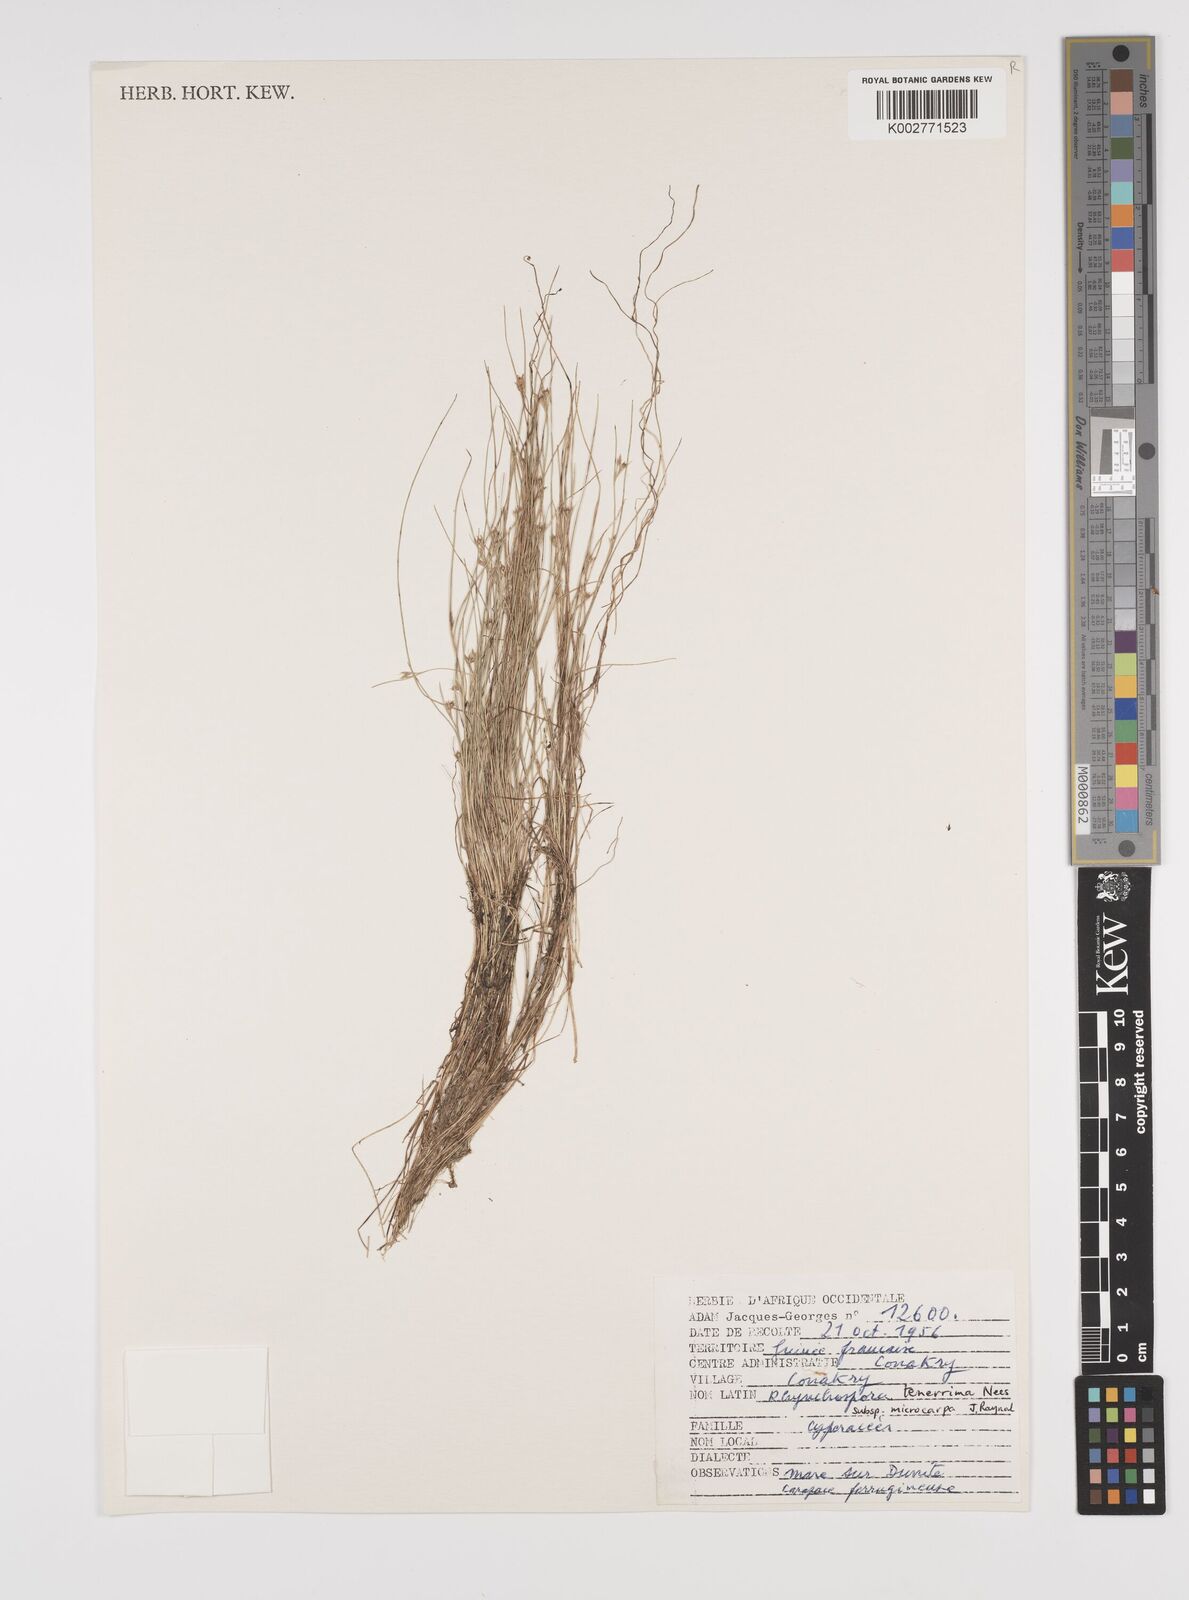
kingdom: Plantae
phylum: Tracheophyta
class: Liliopsida
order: Poales
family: Cyperaceae
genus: Rhynchospora
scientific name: Rhynchospora tenerrima
